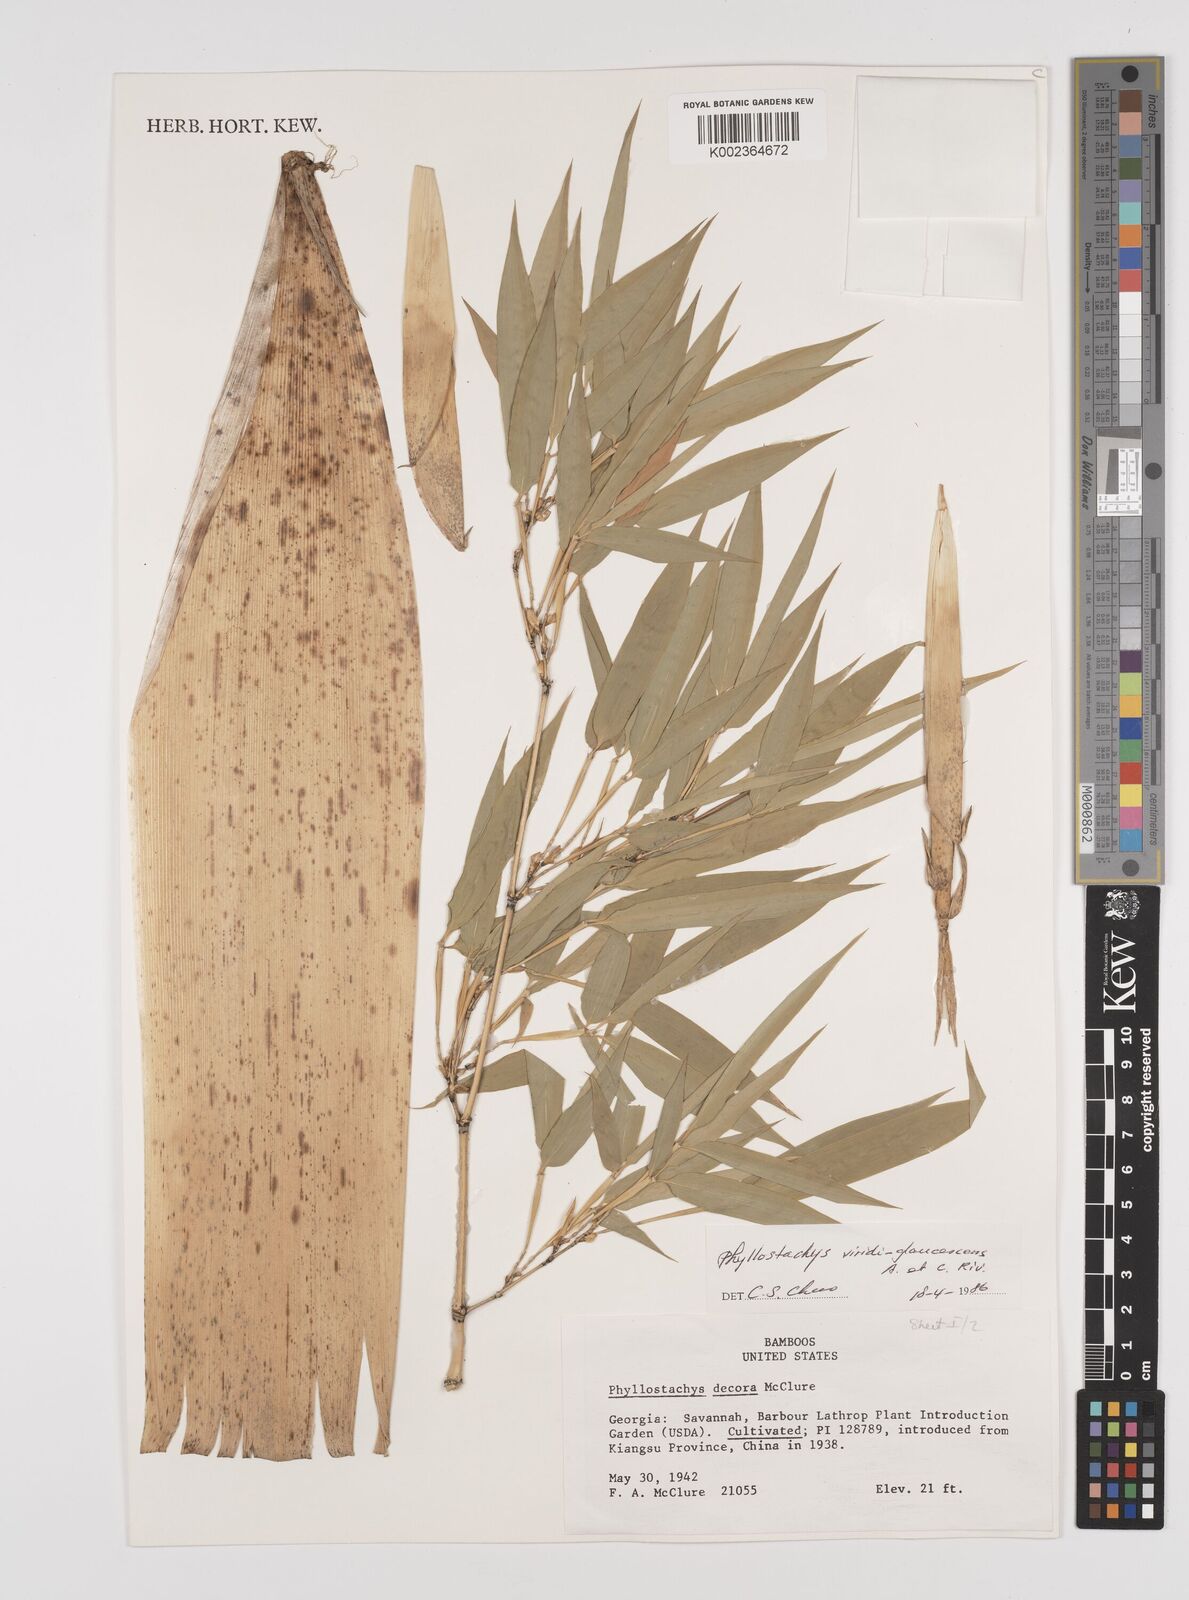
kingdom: Plantae
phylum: Tracheophyta
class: Liliopsida
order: Poales
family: Poaceae
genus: Phyllostachys
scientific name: Phyllostachys viridiglaucescens
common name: Greenwax golden bamboo
